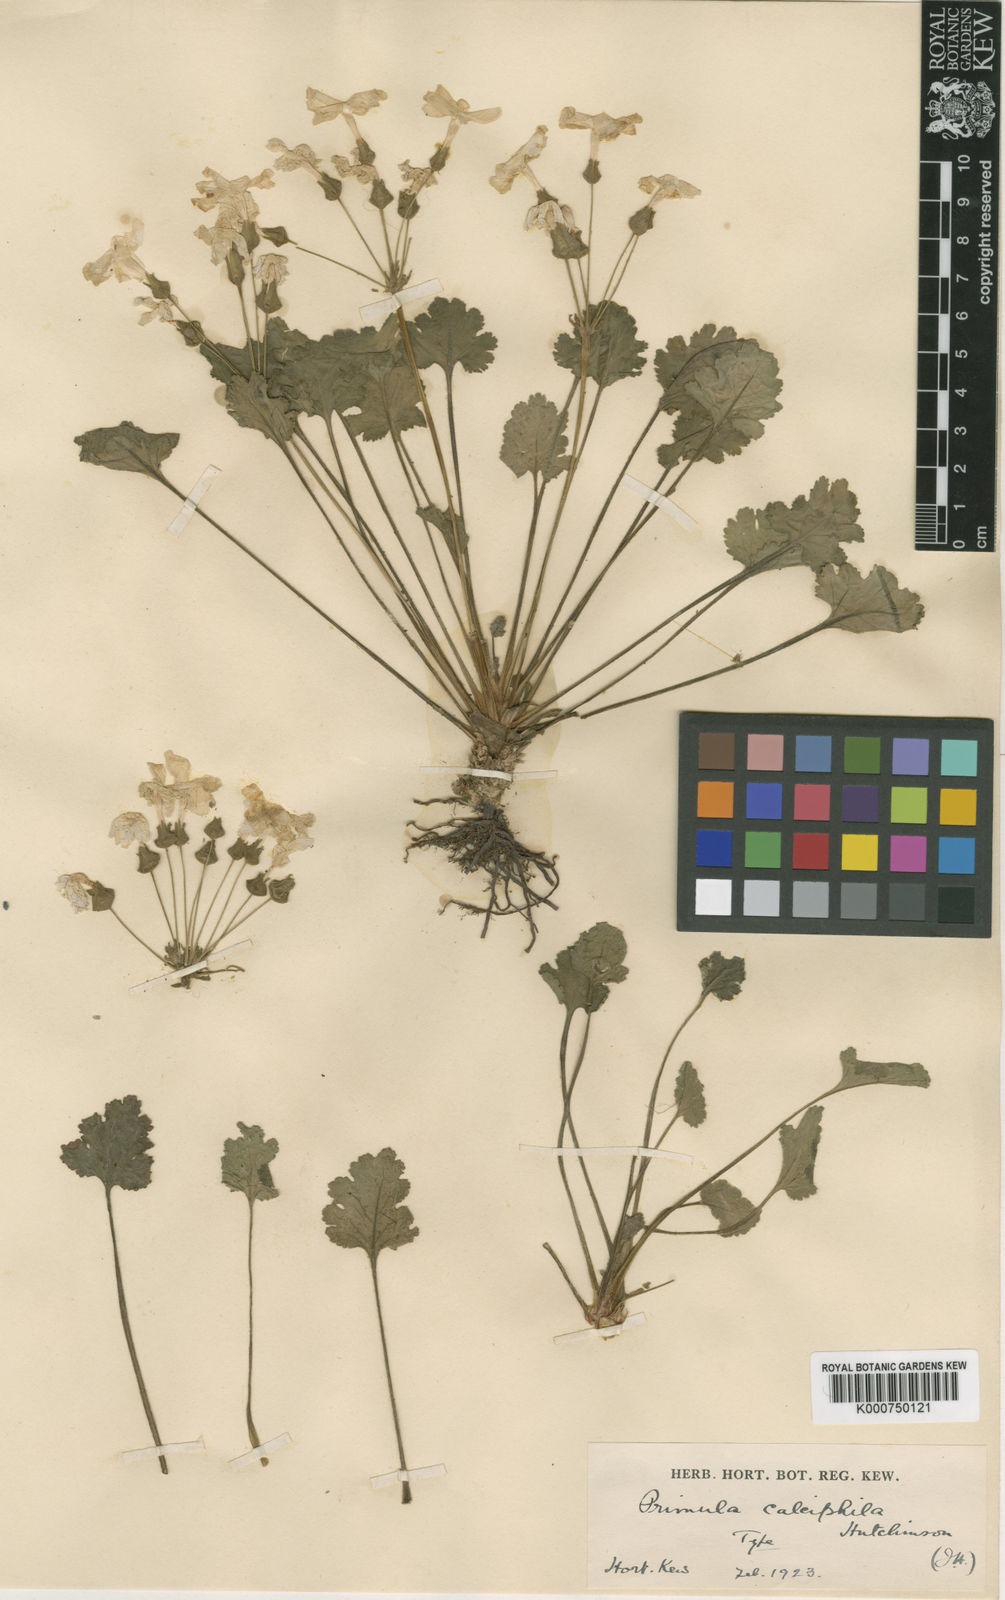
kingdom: Plantae
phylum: Tracheophyta
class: Magnoliopsida
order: Ericales
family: Primulaceae
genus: Primula
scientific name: Primula rupestris
